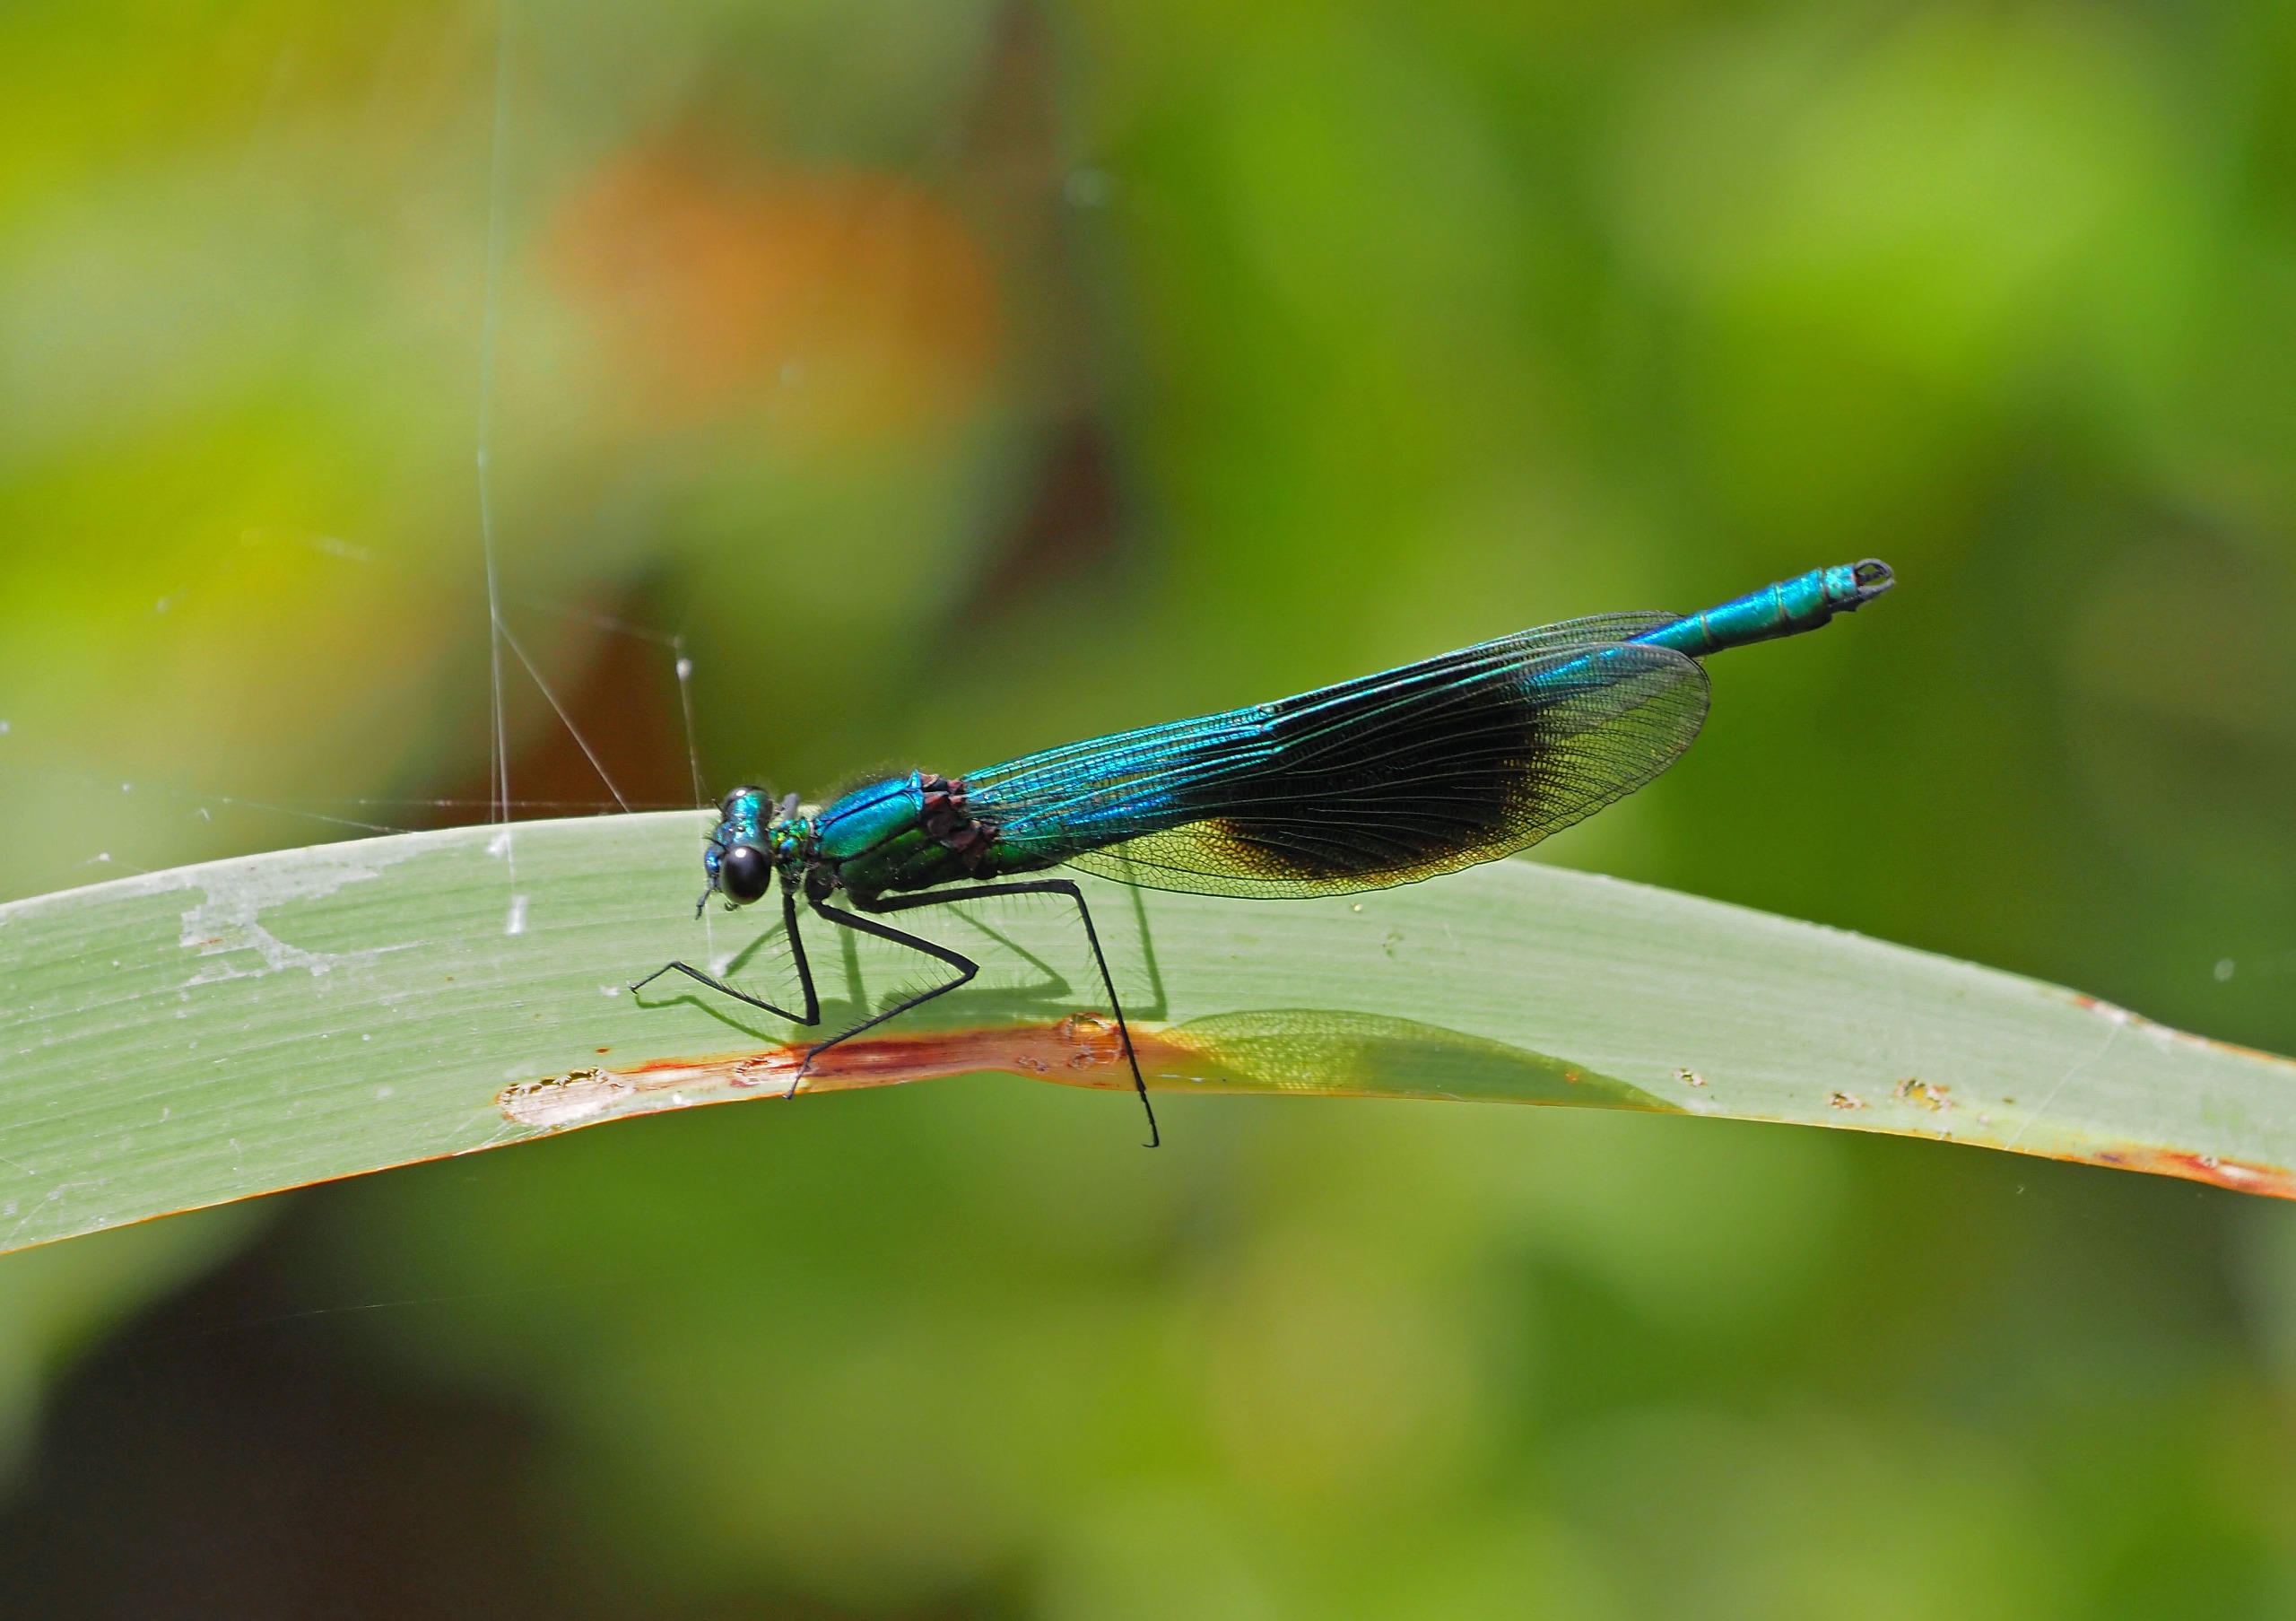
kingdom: Animalia
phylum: Arthropoda
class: Insecta
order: Odonata
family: Calopterygidae
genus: Calopteryx
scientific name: Calopteryx splendens
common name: Blåbåndet pragtvandnymfe
